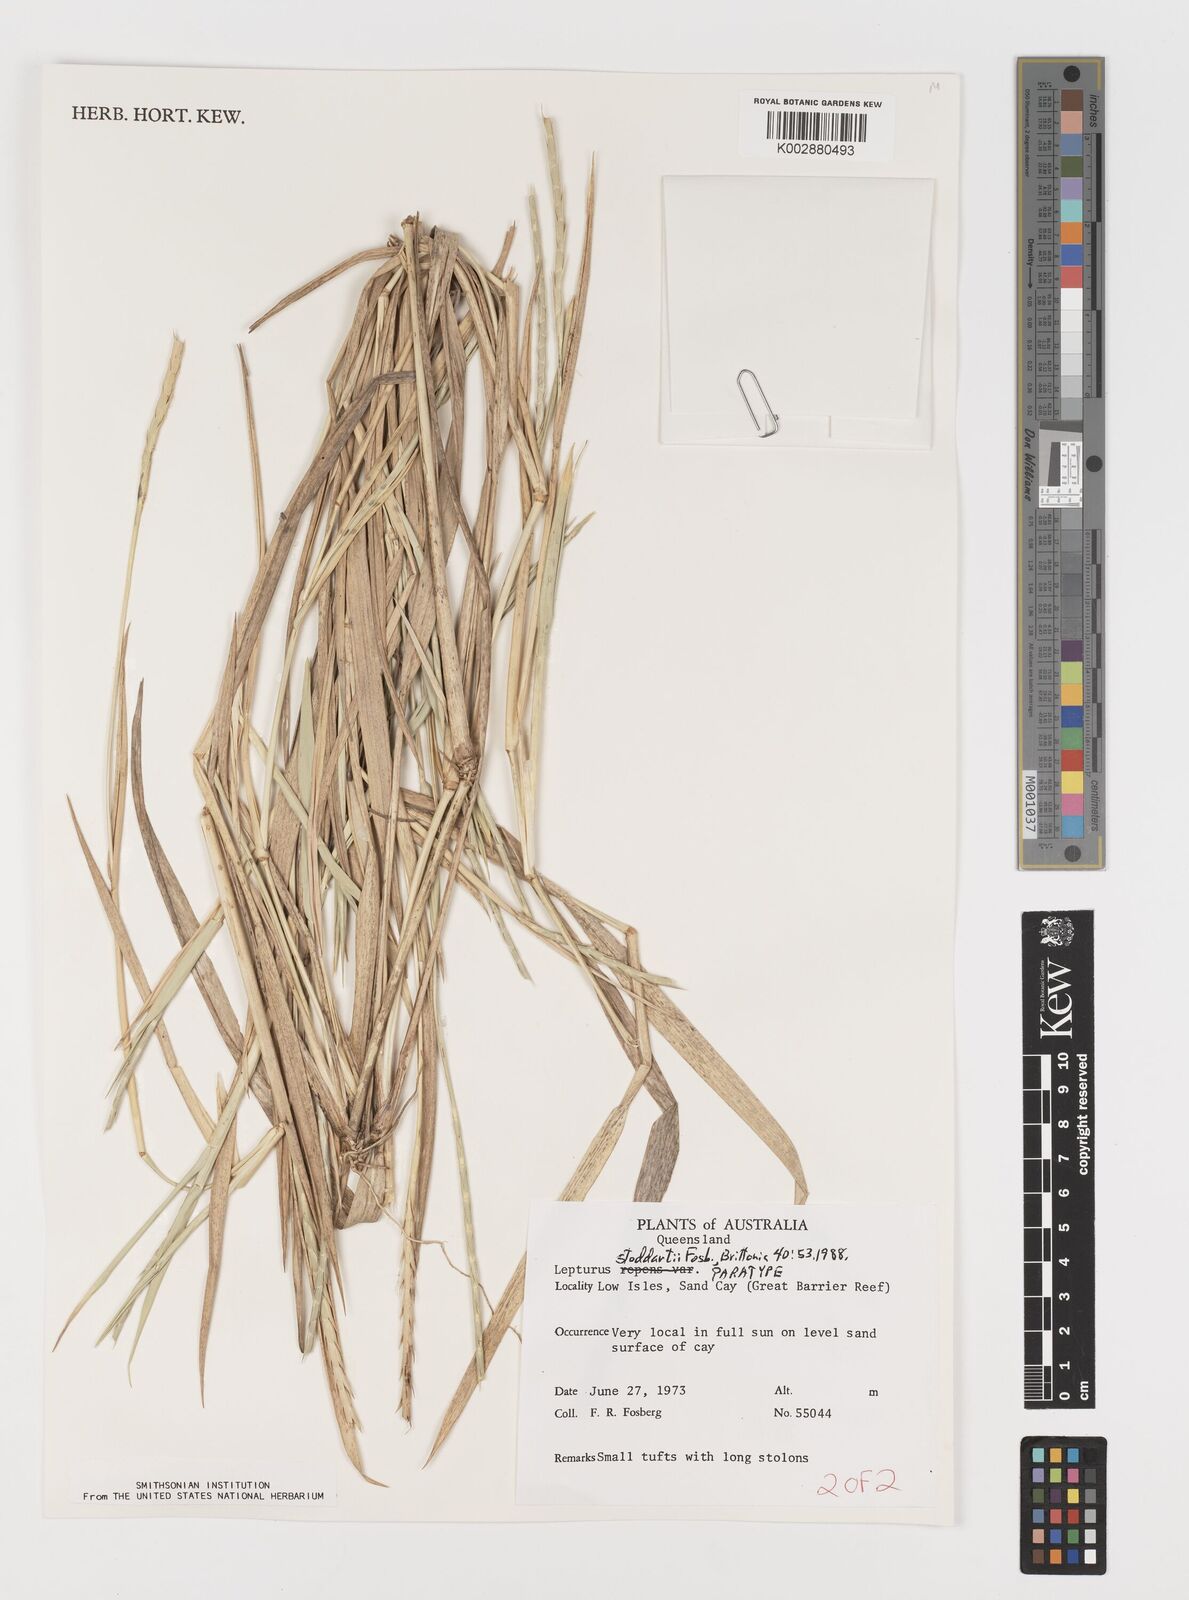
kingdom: Plantae
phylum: Tracheophyta
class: Liliopsida
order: Poales
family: Poaceae
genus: Lepturus
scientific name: Lepturus repens
